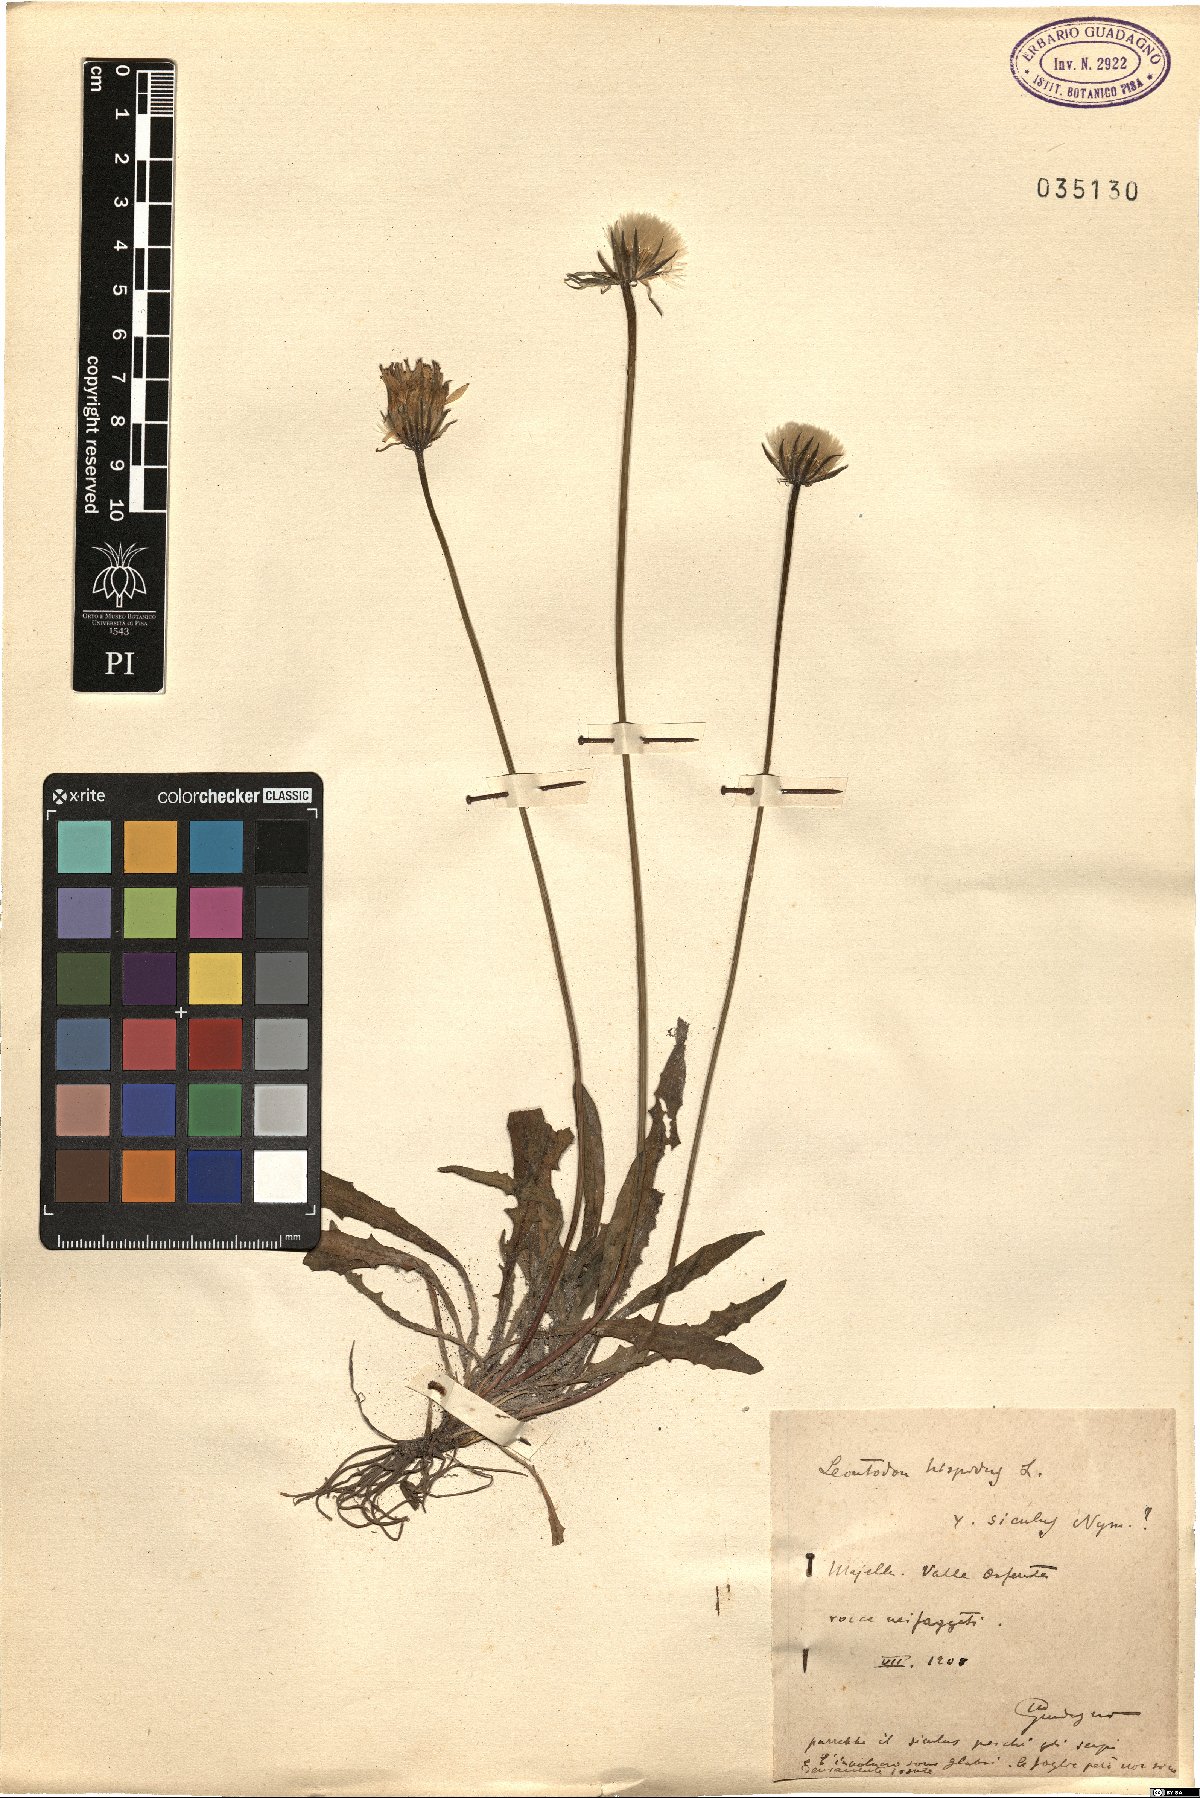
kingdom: Plantae
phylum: Tracheophyta
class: Magnoliopsida
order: Asterales
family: Asteraceae
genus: Leontodon
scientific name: Leontodon hispidus
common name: Rough hawkbit
